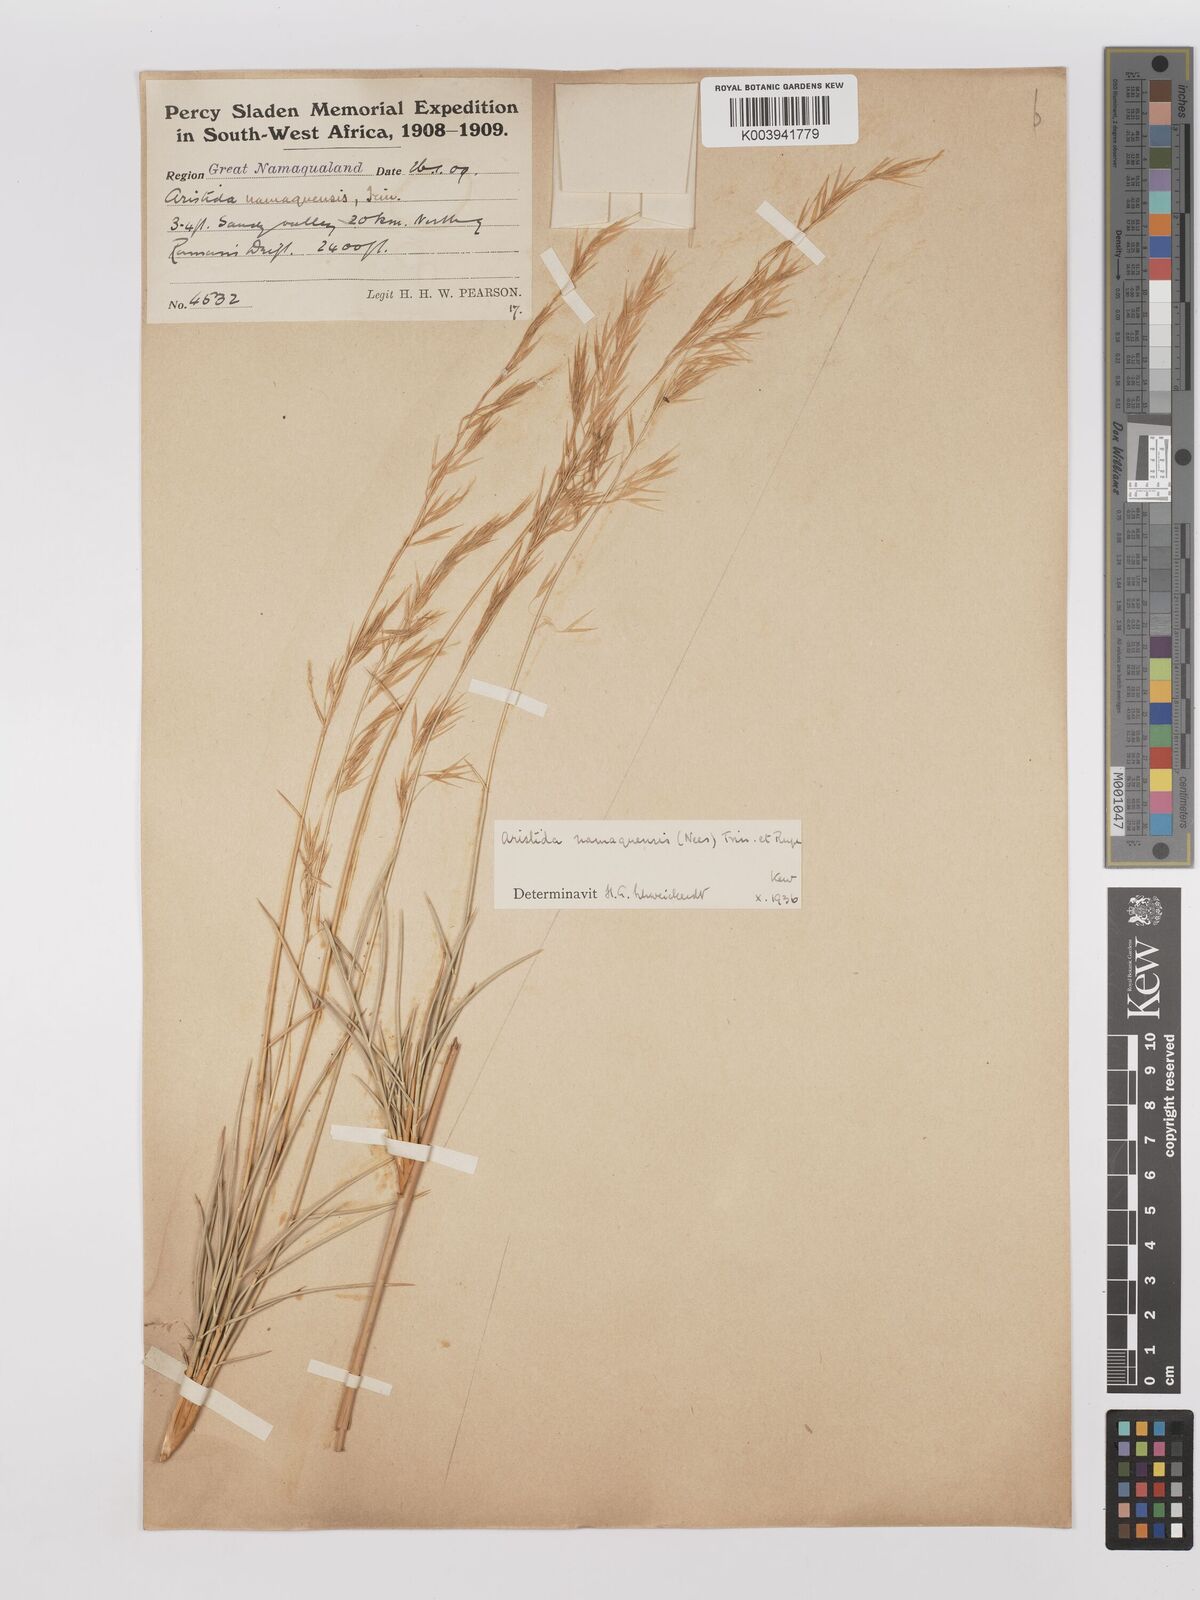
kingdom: Plantae
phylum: Tracheophyta
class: Liliopsida
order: Poales
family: Poaceae
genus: Stipagrostis
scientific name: Stipagrostis namaquensis
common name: River bushman grass
